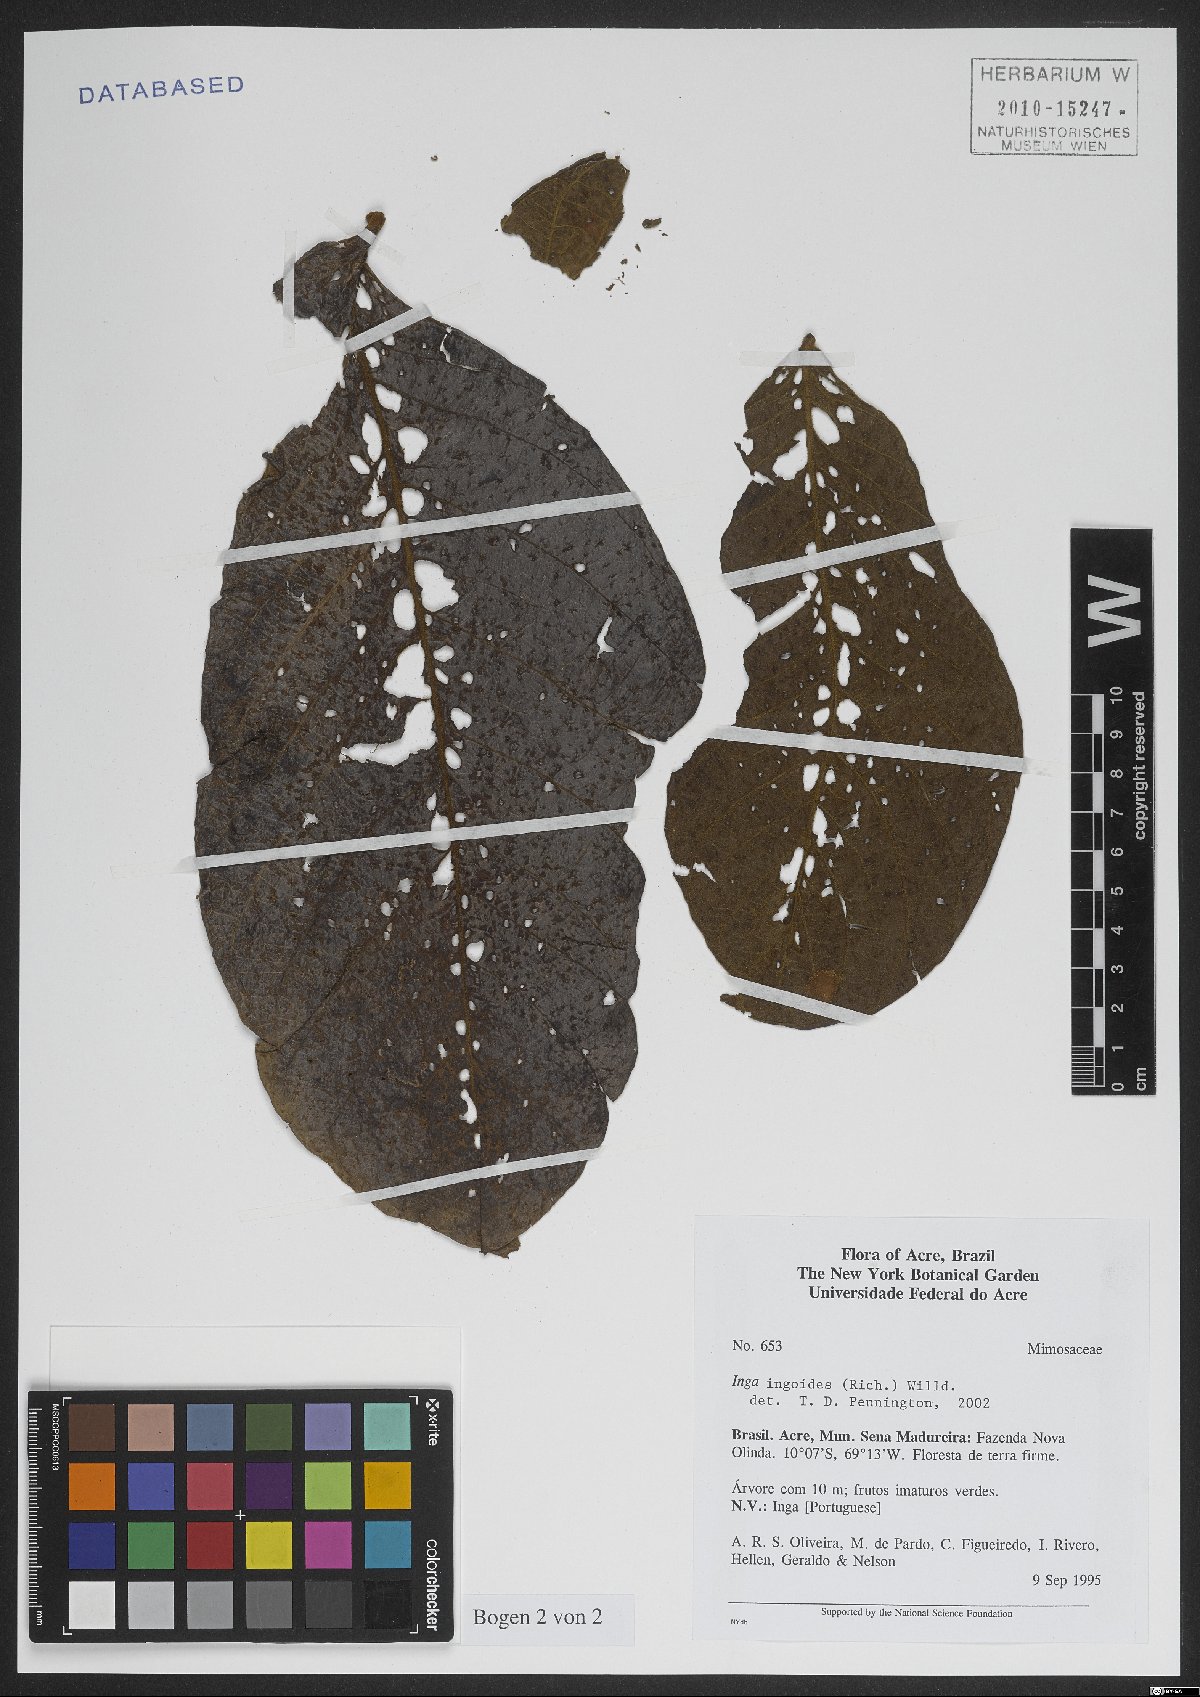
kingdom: Plantae
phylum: Tracheophyta
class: Magnoliopsida
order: Fabales
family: Fabaceae
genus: Inga
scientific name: Inga ingoides
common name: Spanish ash
